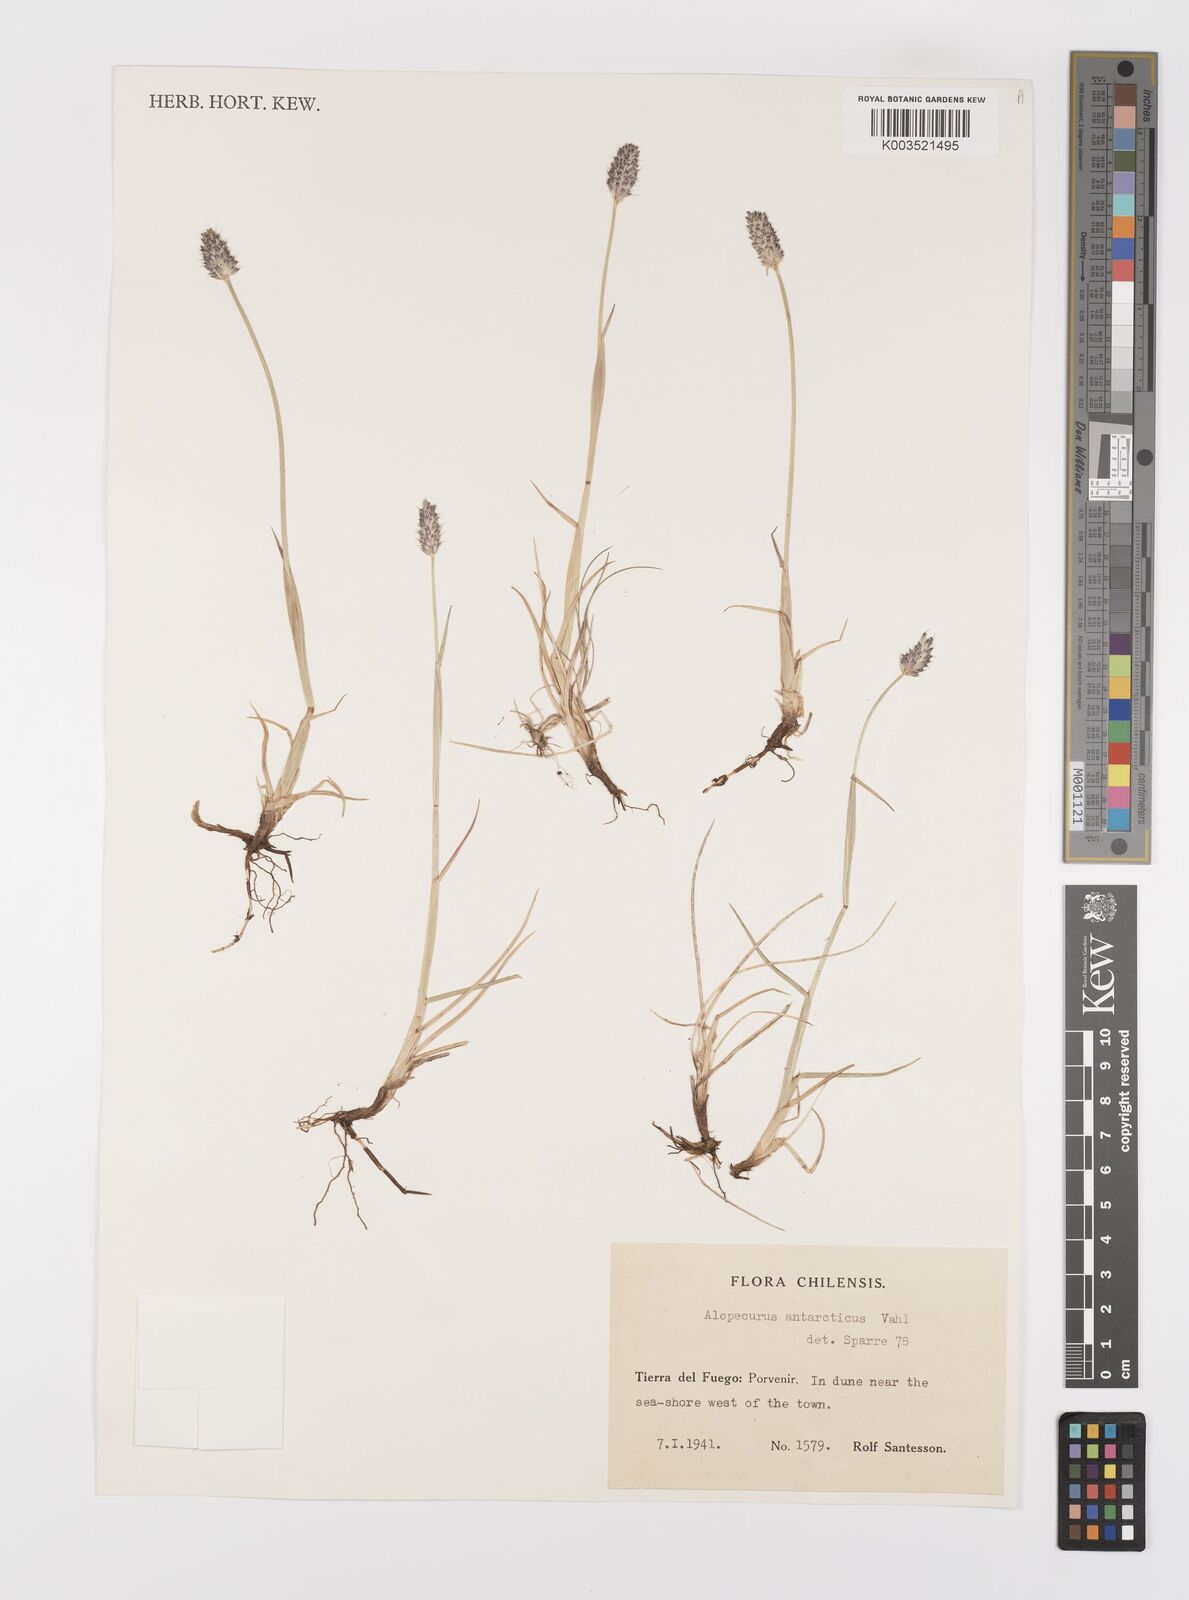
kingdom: Plantae
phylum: Tracheophyta
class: Liliopsida
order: Poales
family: Poaceae
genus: Alopecurus
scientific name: Alopecurus magellanicus
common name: Alpine foxtail
